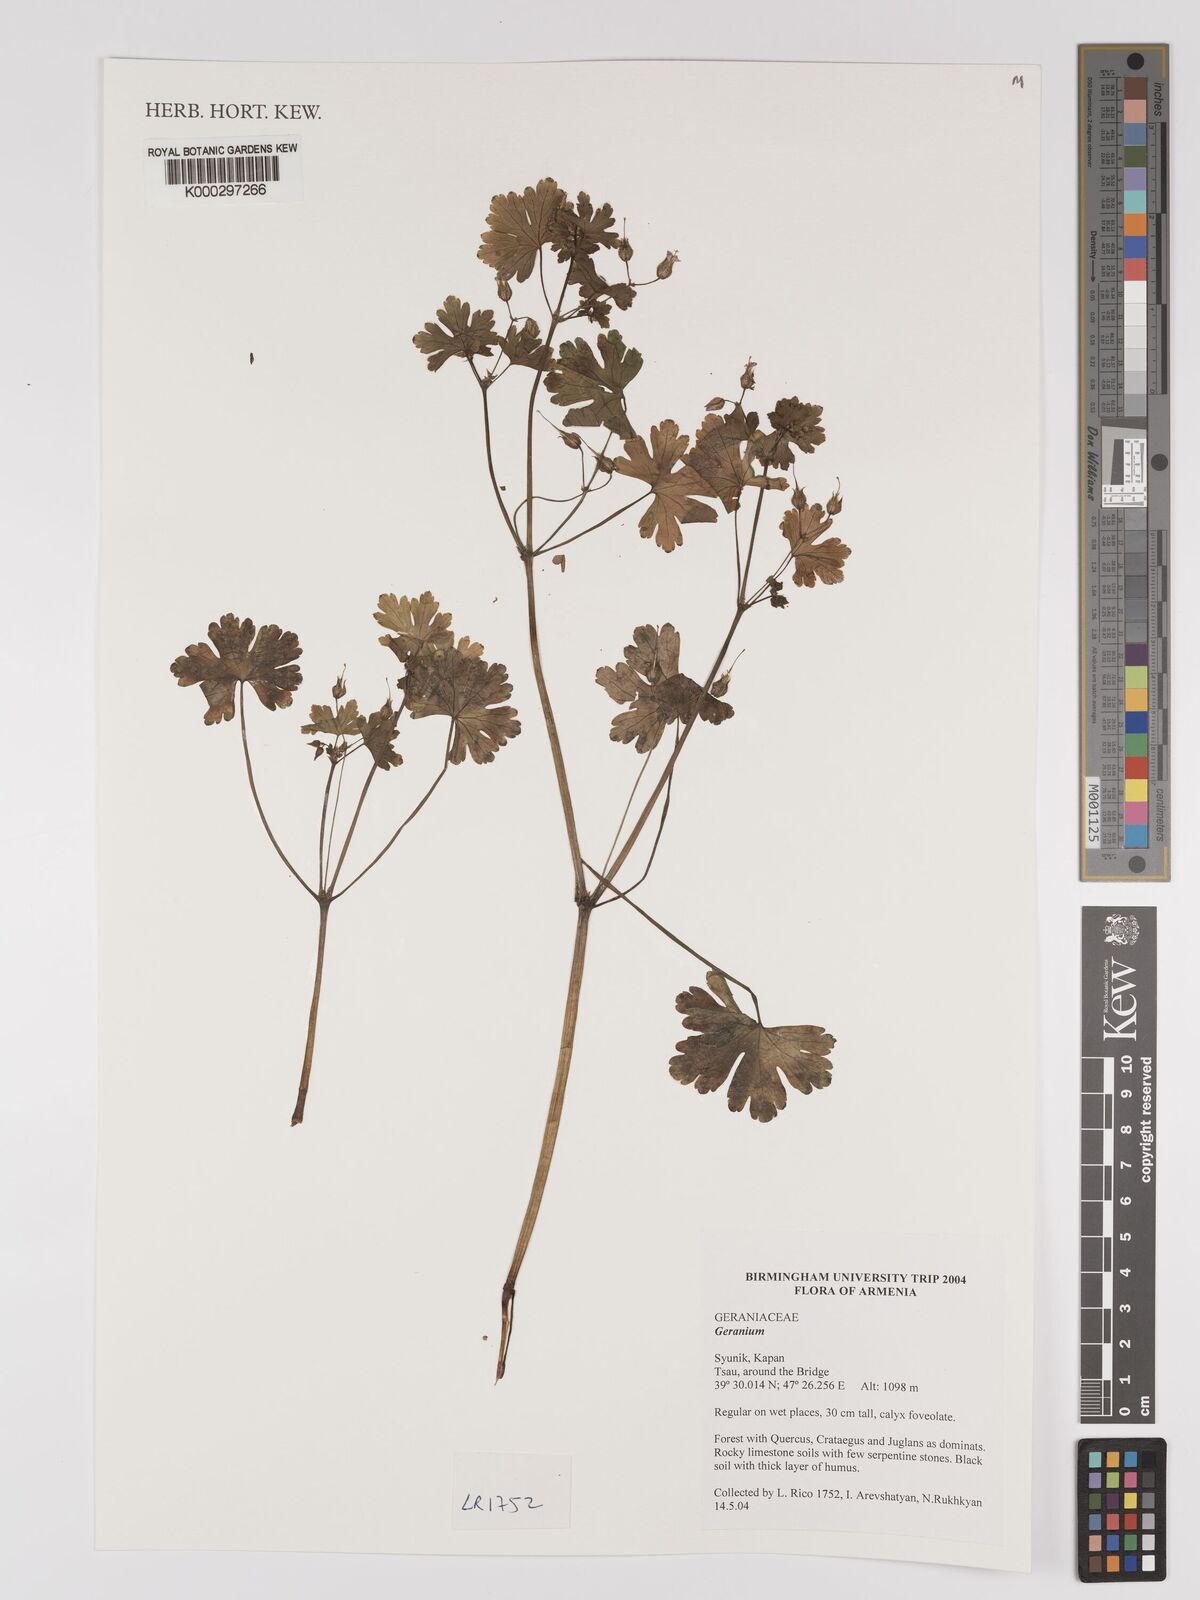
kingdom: Plantae
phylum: Tracheophyta
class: Magnoliopsida
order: Geraniales
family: Geraniaceae
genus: Geranium
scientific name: Geranium
